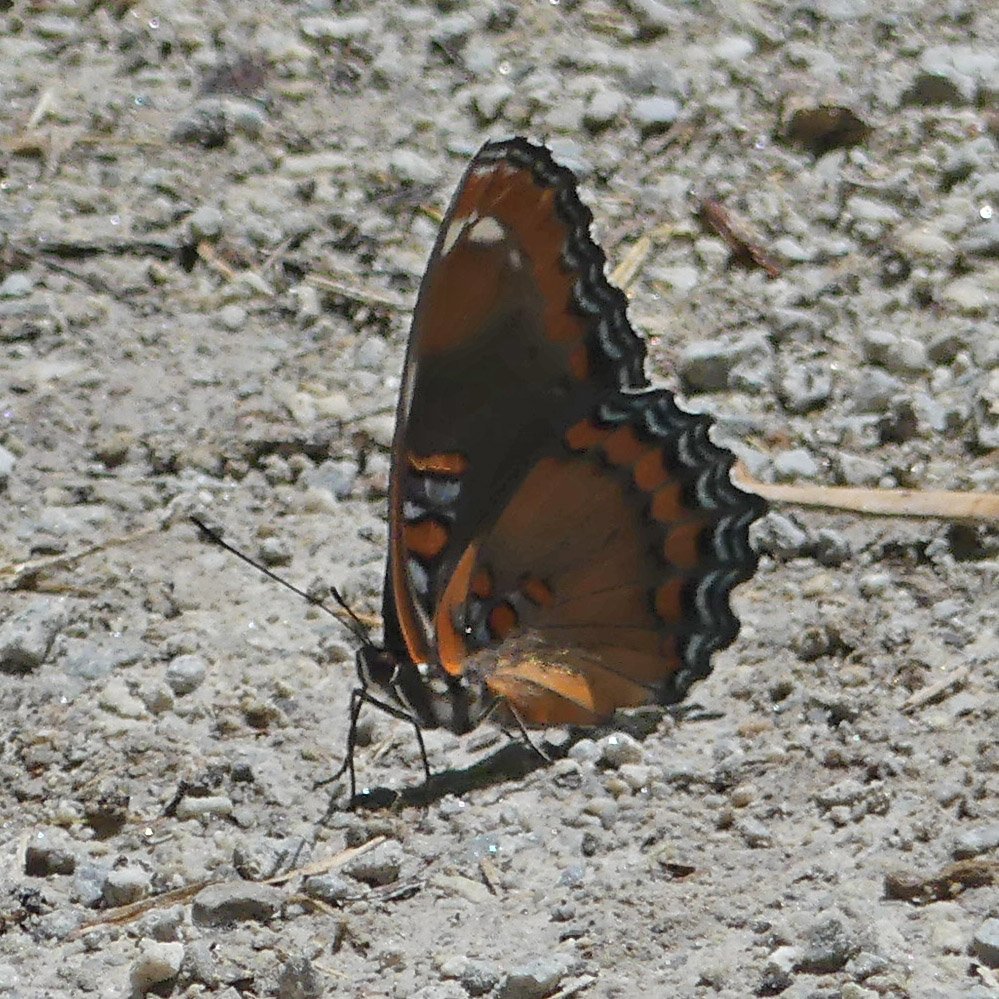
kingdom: Animalia
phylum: Arthropoda
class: Insecta
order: Lepidoptera
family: Nymphalidae
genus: Limenitis
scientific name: Limenitis astyanax
